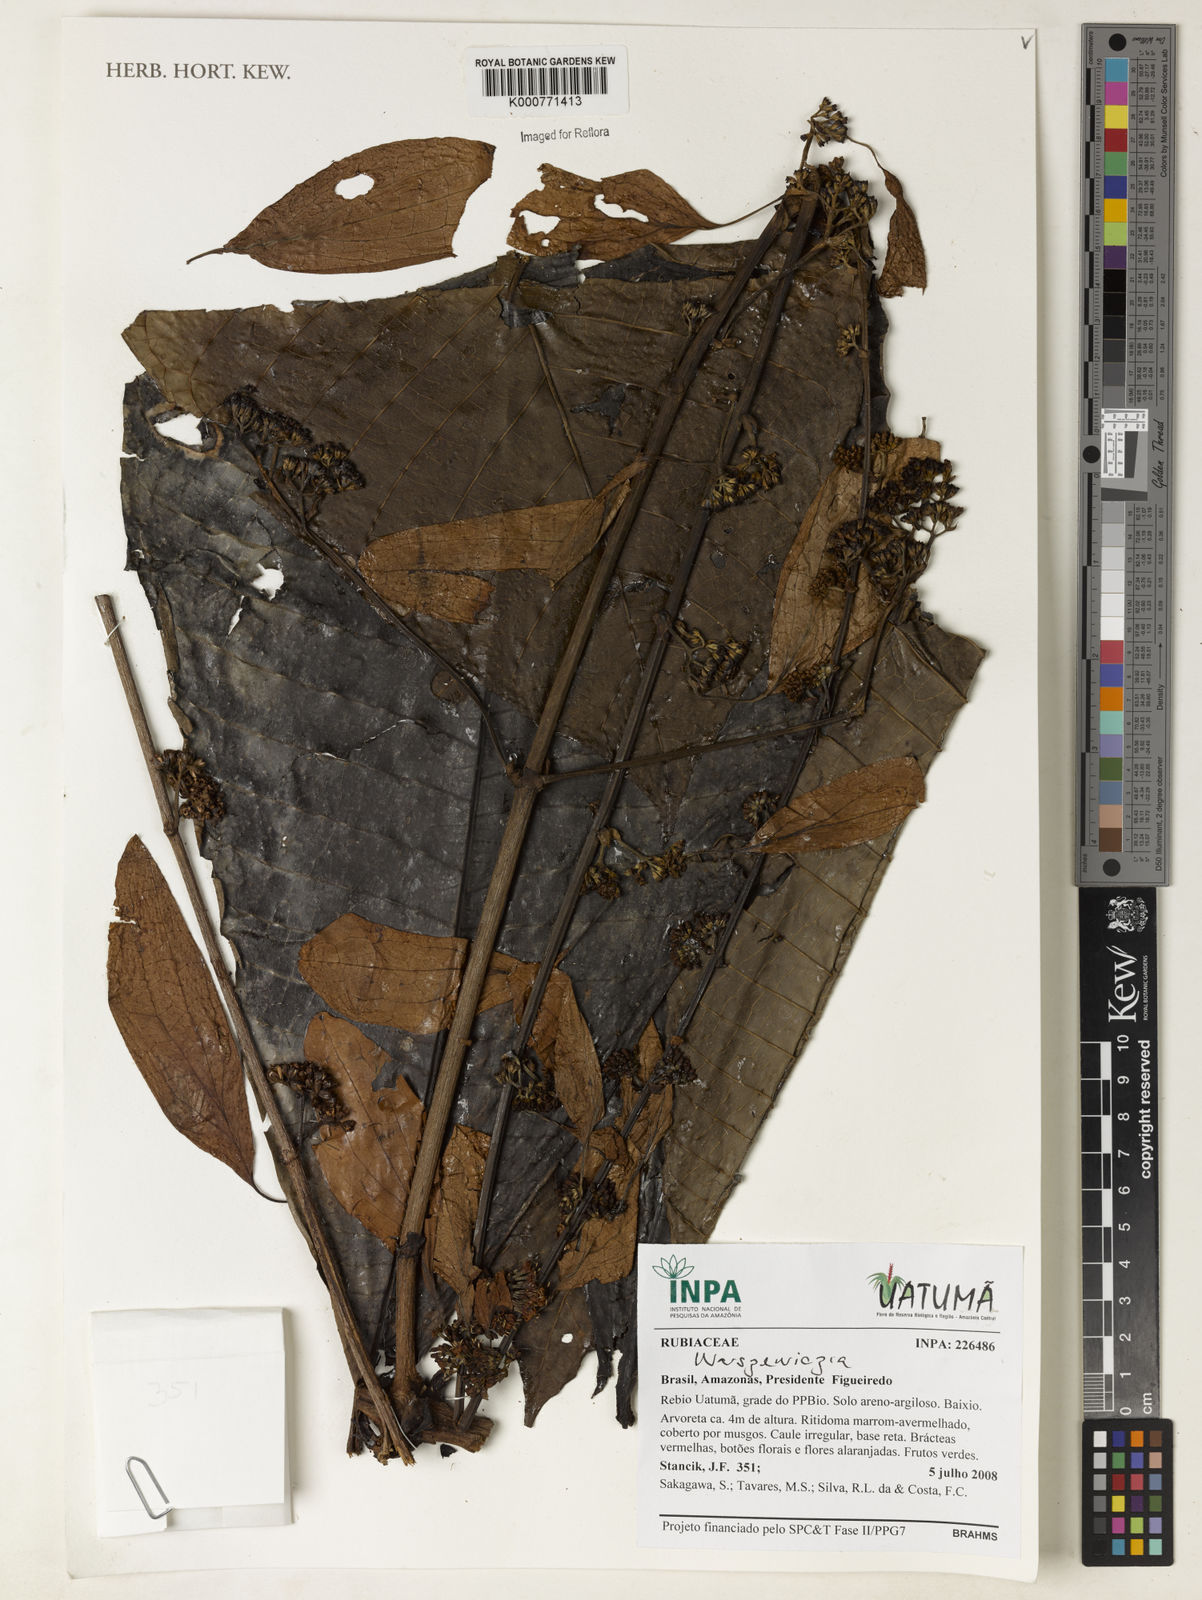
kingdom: Plantae
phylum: Tracheophyta
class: Magnoliopsida
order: Gentianales
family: Rubiaceae
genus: Psychotria
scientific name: Psychotria
